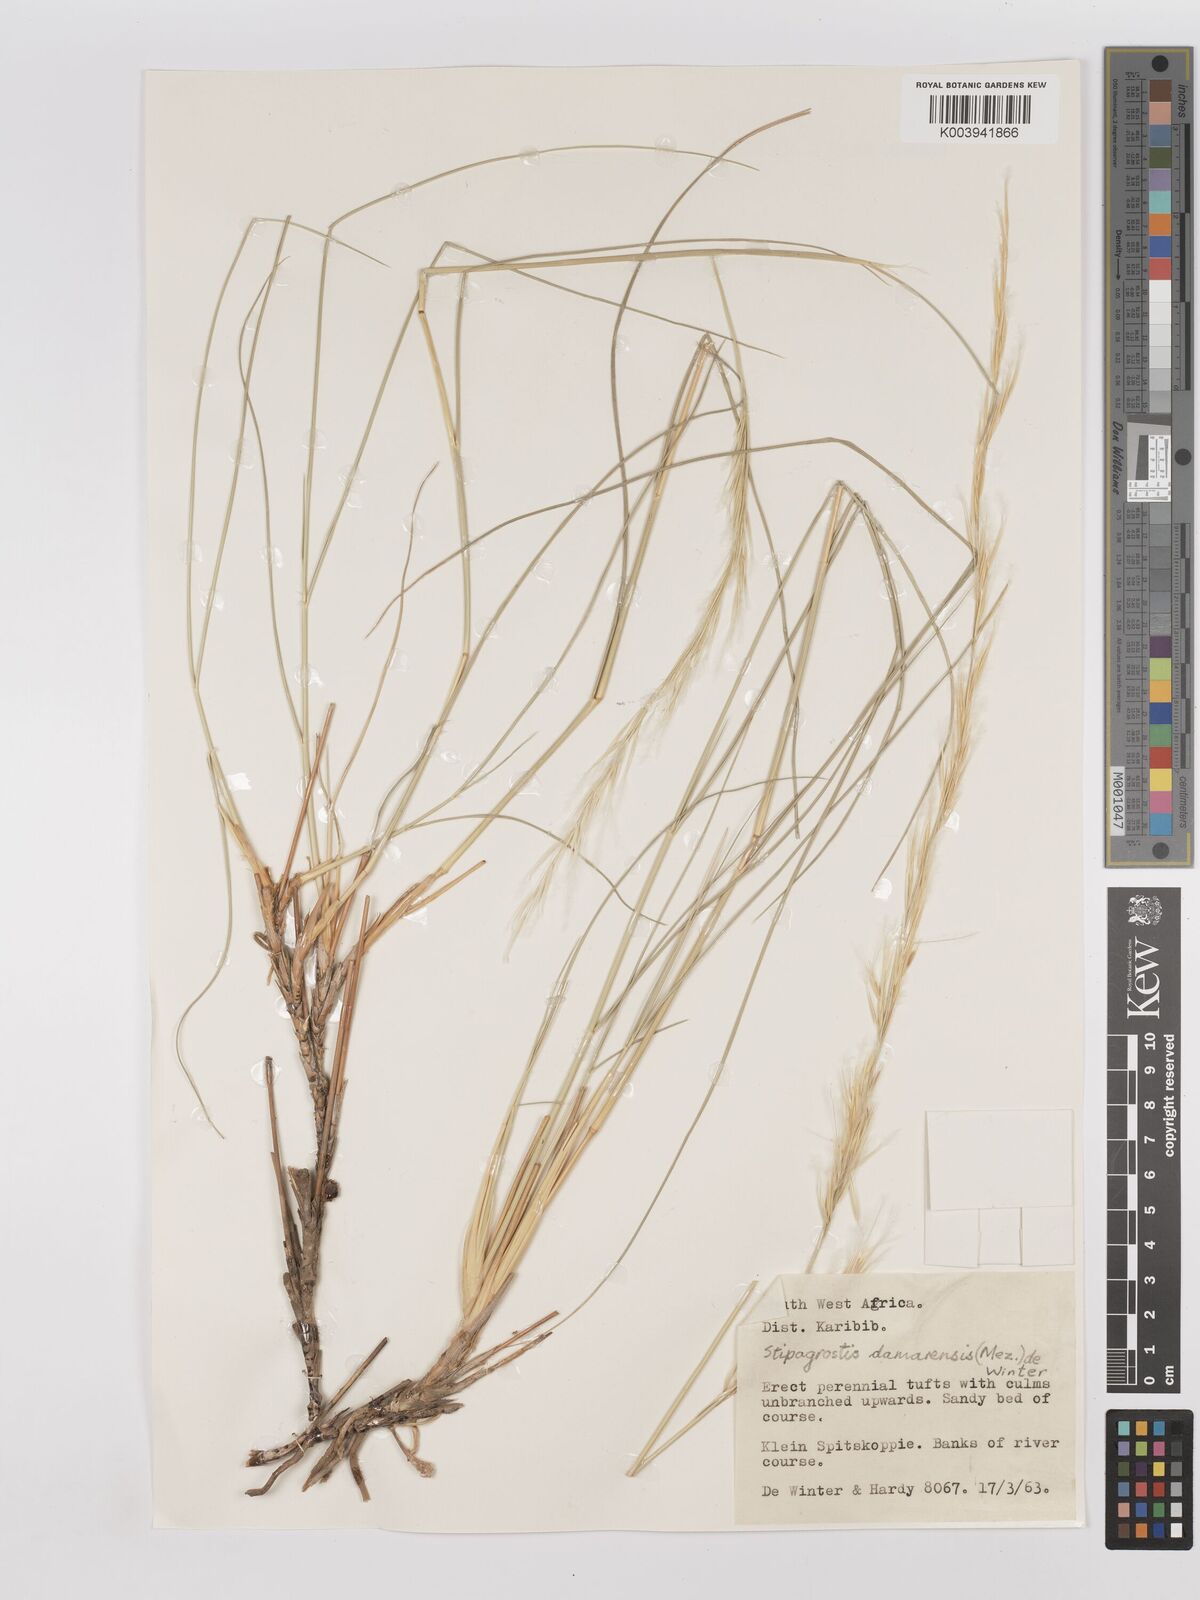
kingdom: Plantae
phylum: Tracheophyta
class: Liliopsida
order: Poales
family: Poaceae
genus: Stipagrostis
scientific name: Stipagrostis damarensis
